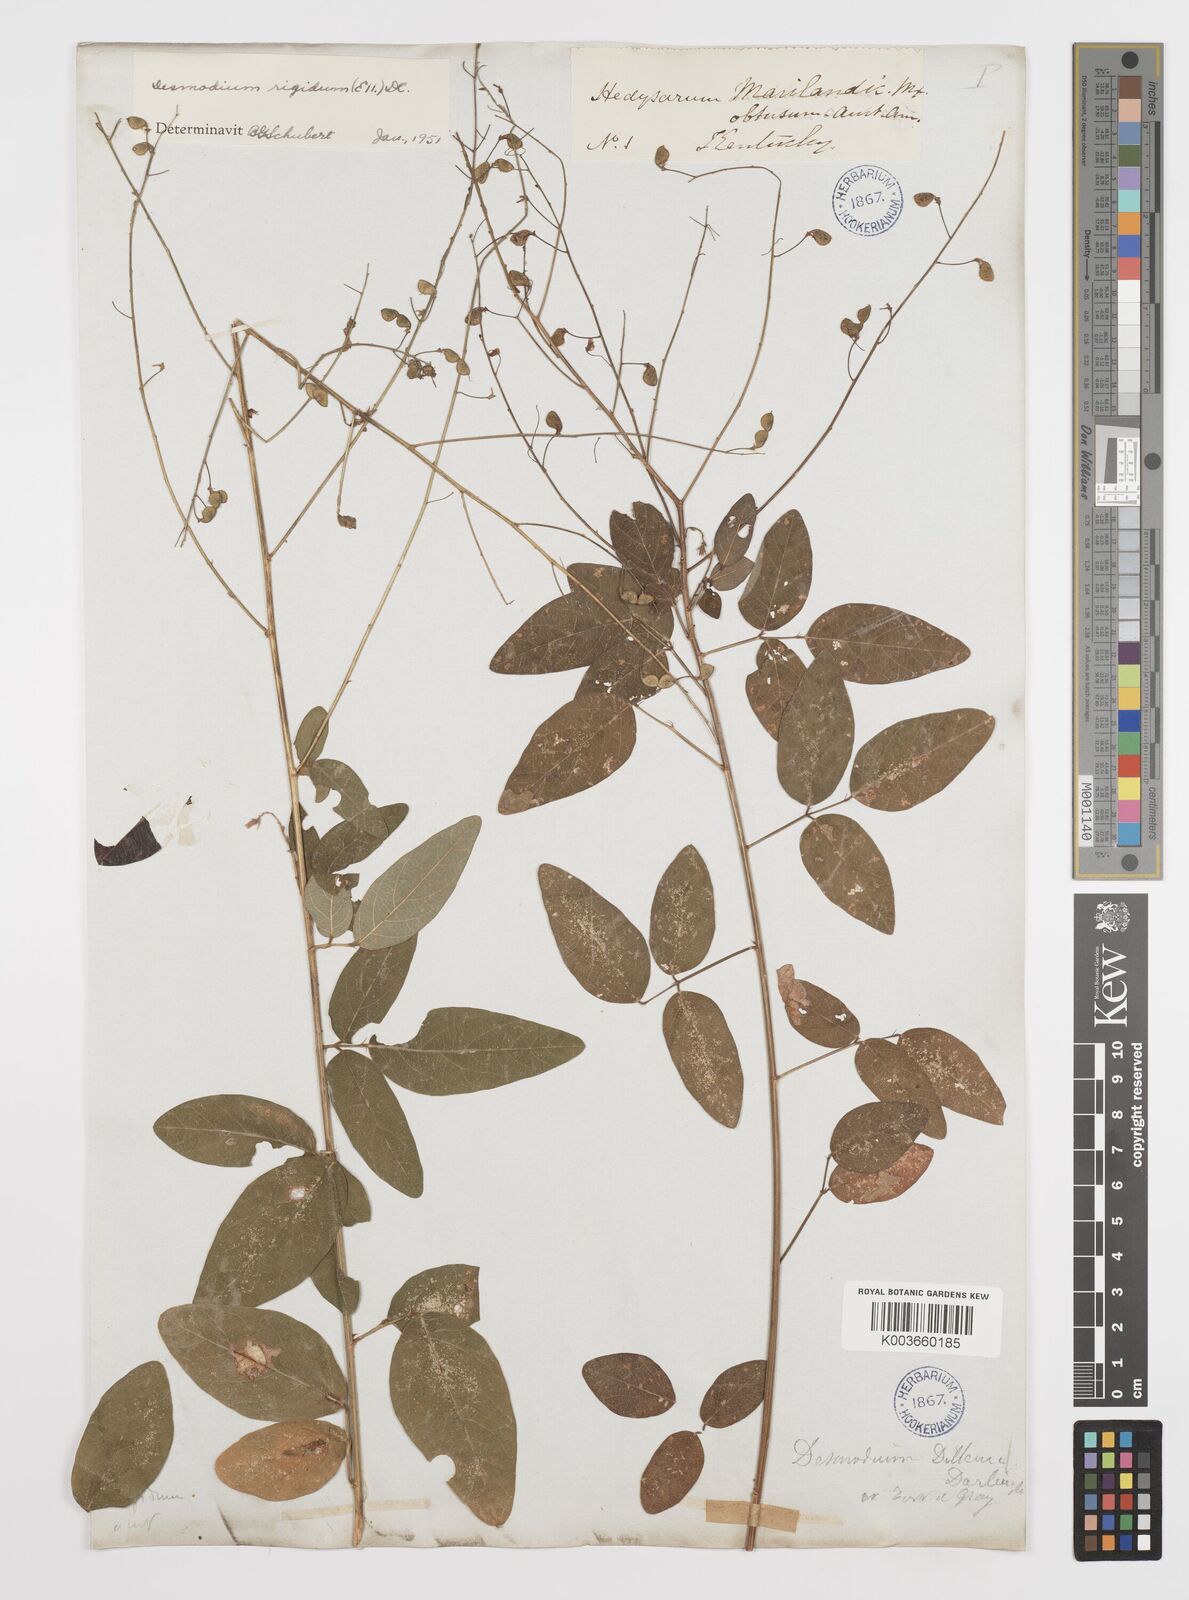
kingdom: Plantae
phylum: Tracheophyta
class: Magnoliopsida
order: Fabales
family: Fabaceae
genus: Desmodium
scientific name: Desmodium obtusum
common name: Stiff tick trefoil
